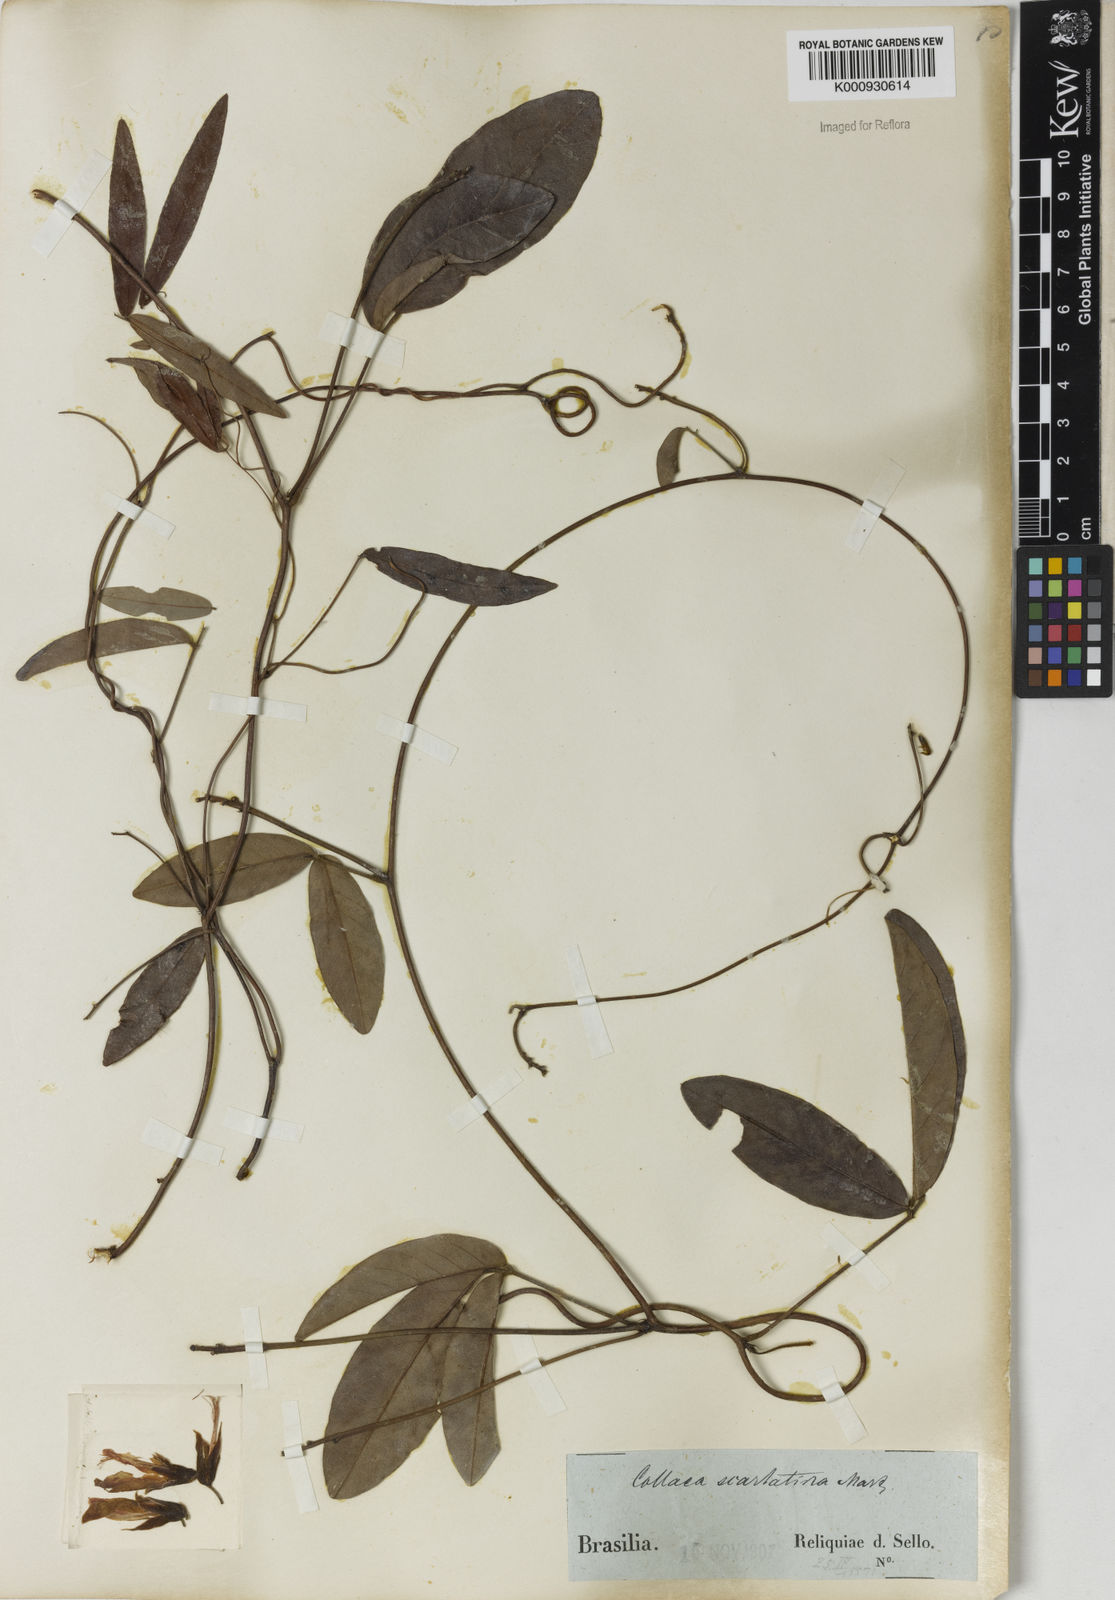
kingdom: Plantae
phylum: Tracheophyta
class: Magnoliopsida
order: Fabales
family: Fabaceae
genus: Betencourtia
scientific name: Betencourtia scarlatina
